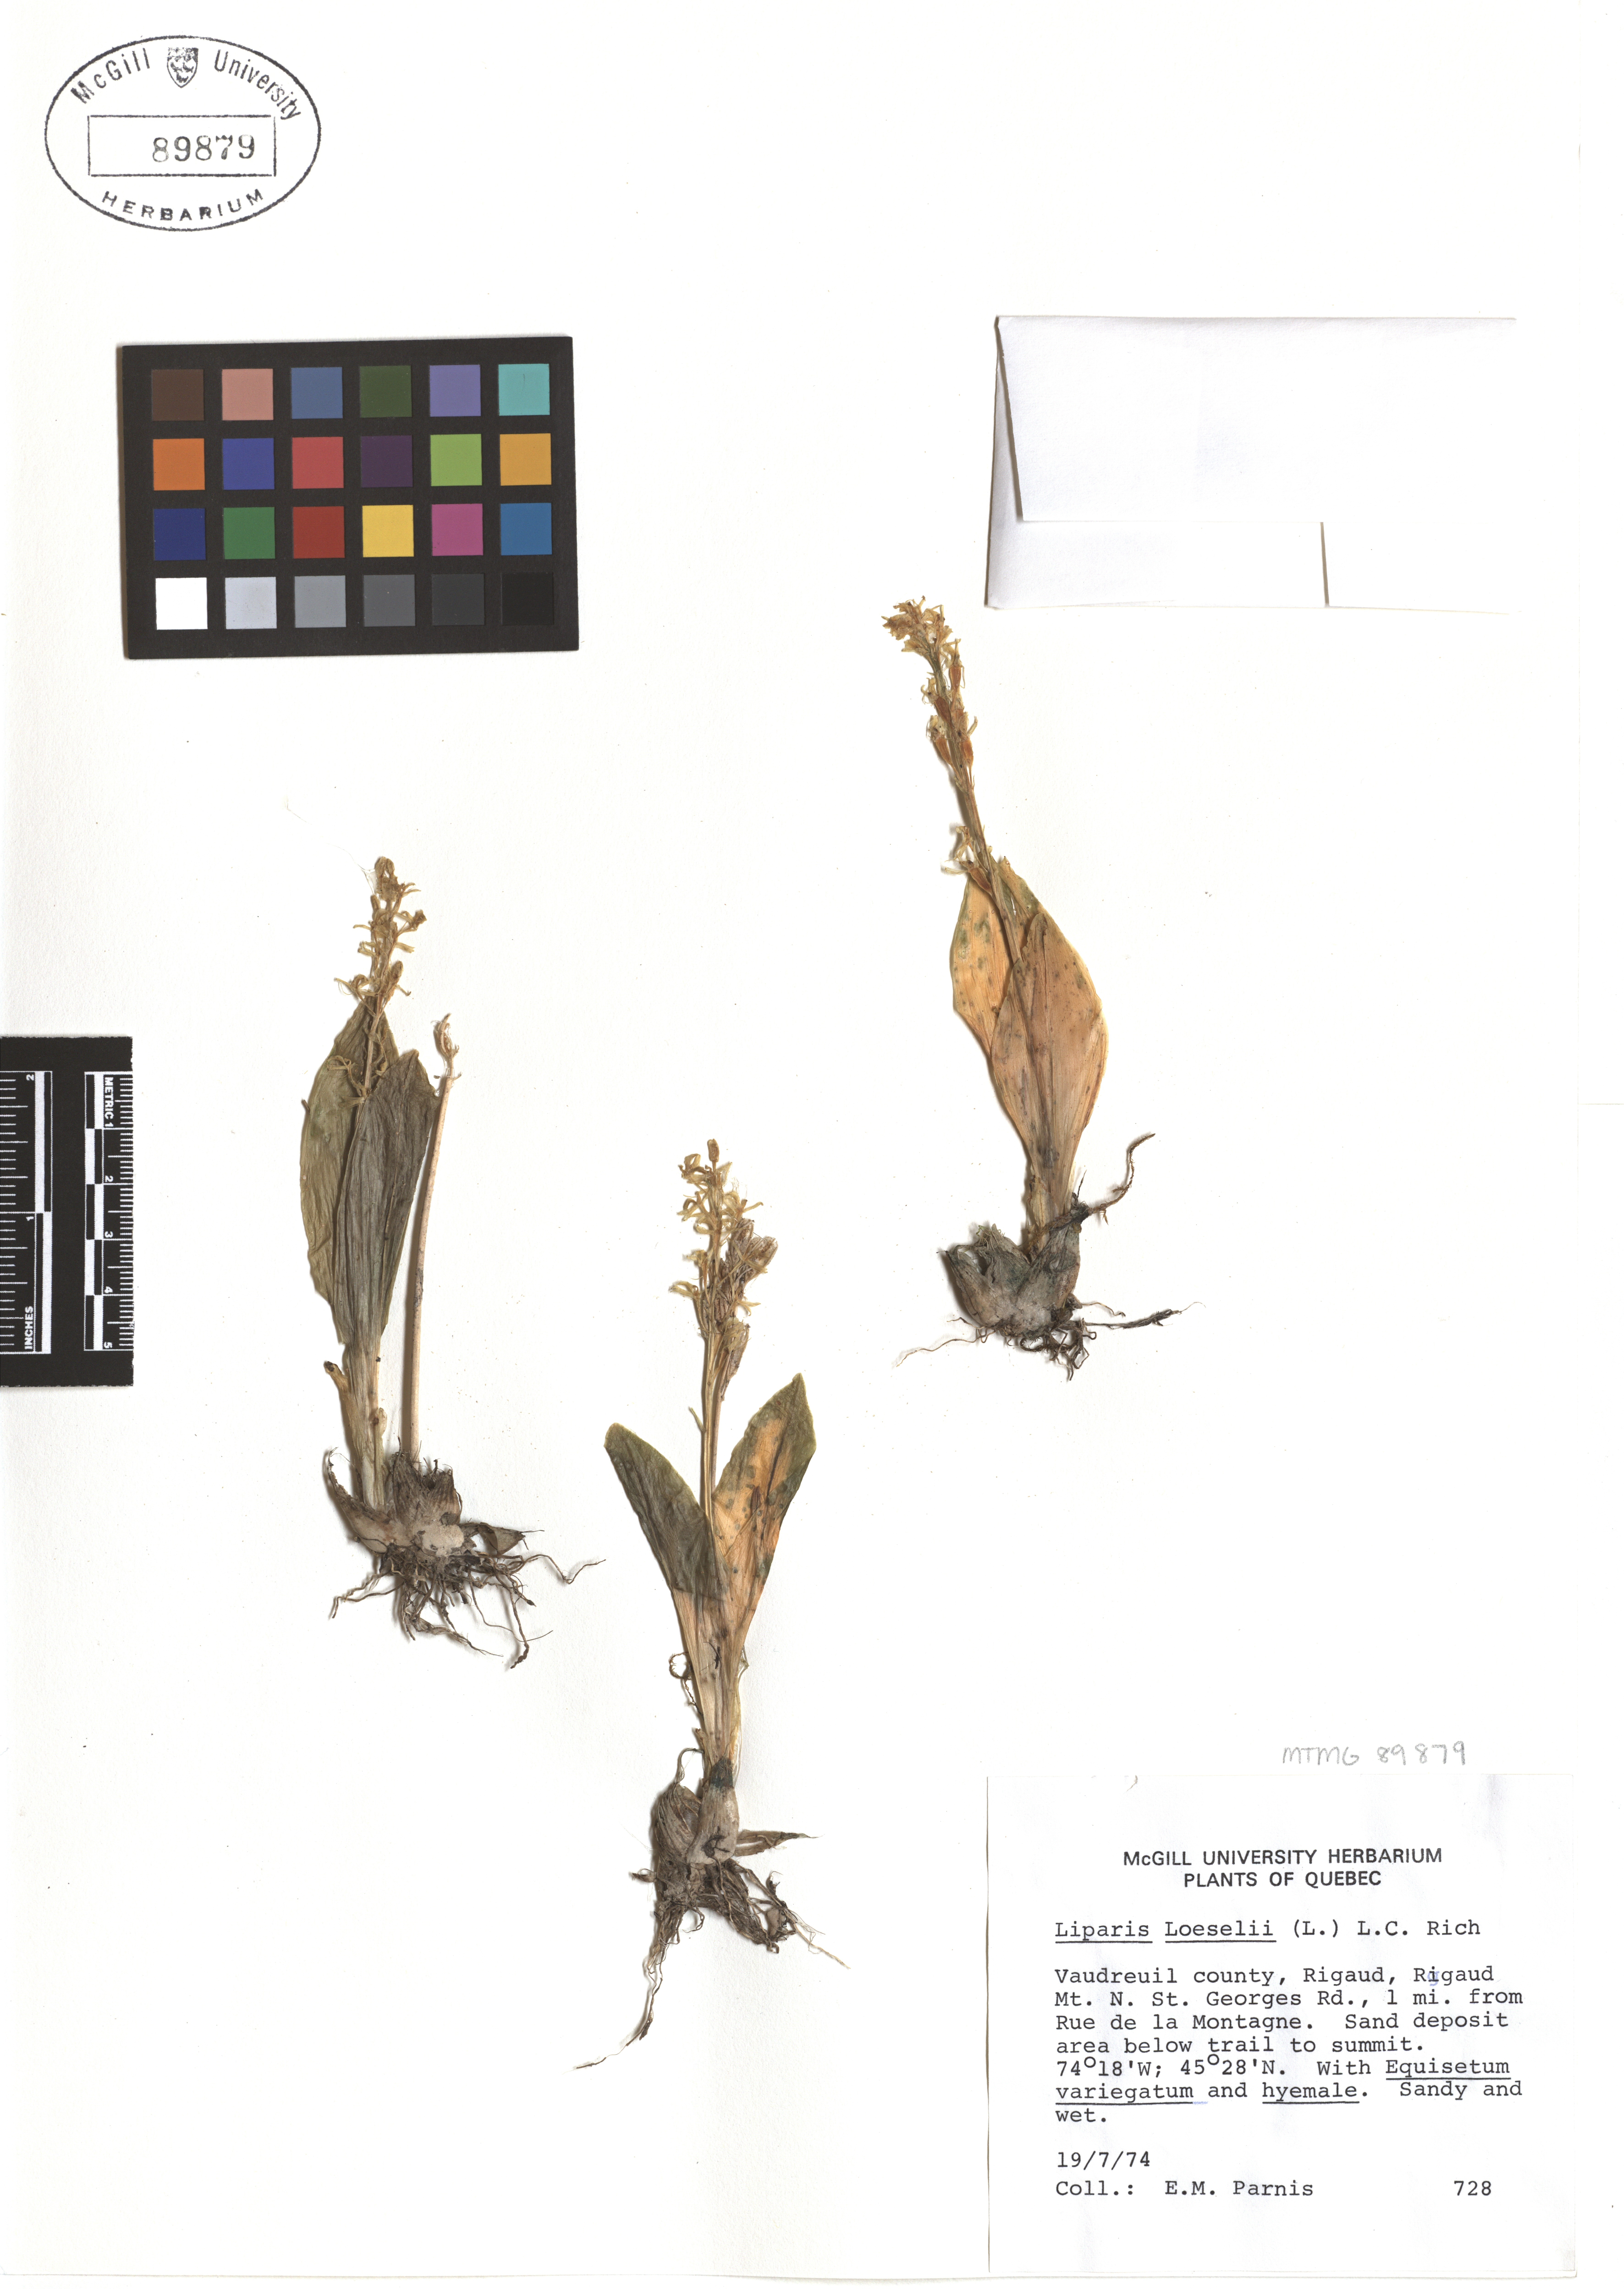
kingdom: Animalia
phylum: Arthropoda
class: Insecta
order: Coleoptera
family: Curculionidae
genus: Liparis
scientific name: Liparis loeselii
